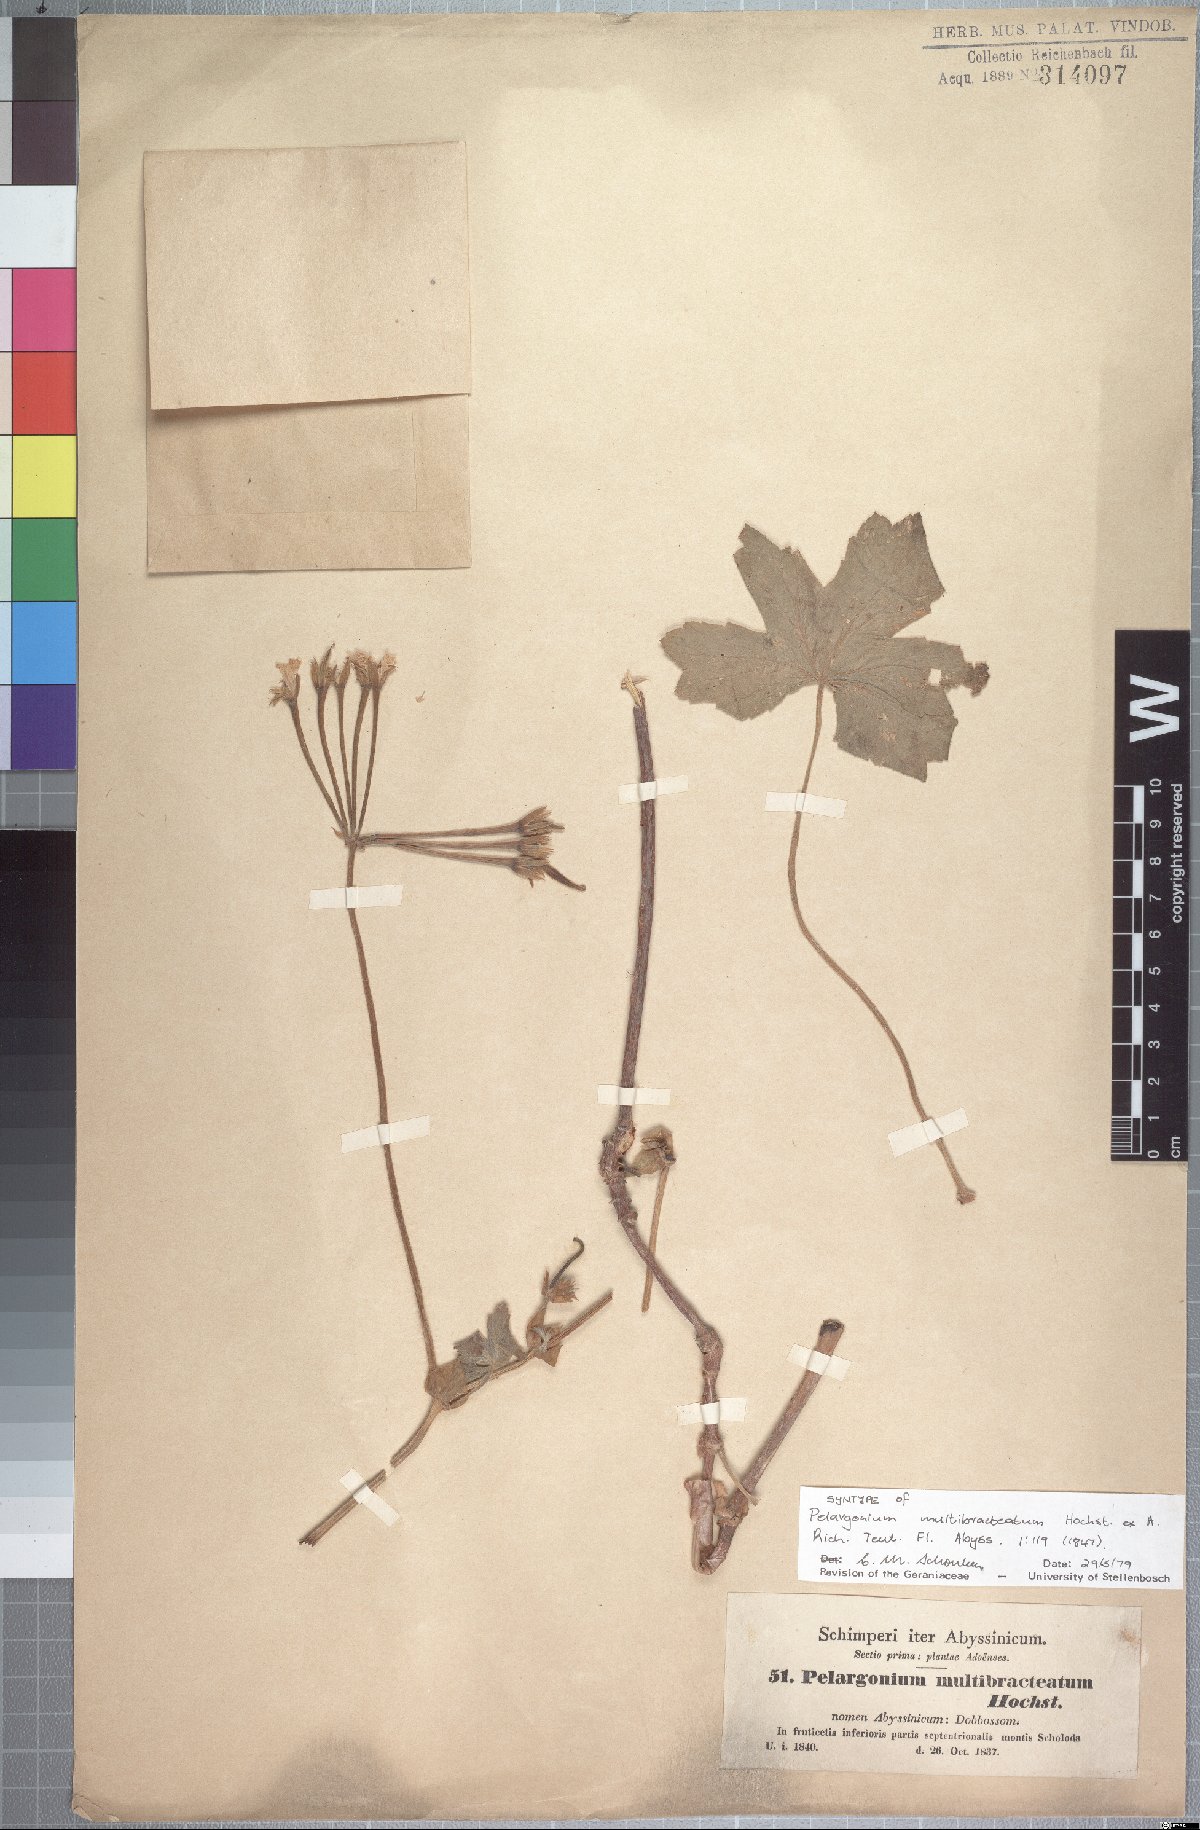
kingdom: Plantae
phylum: Tracheophyta
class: Magnoliopsida
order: Geraniales
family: Geraniaceae
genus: Pelargonium
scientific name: Pelargonium multibracteatum
